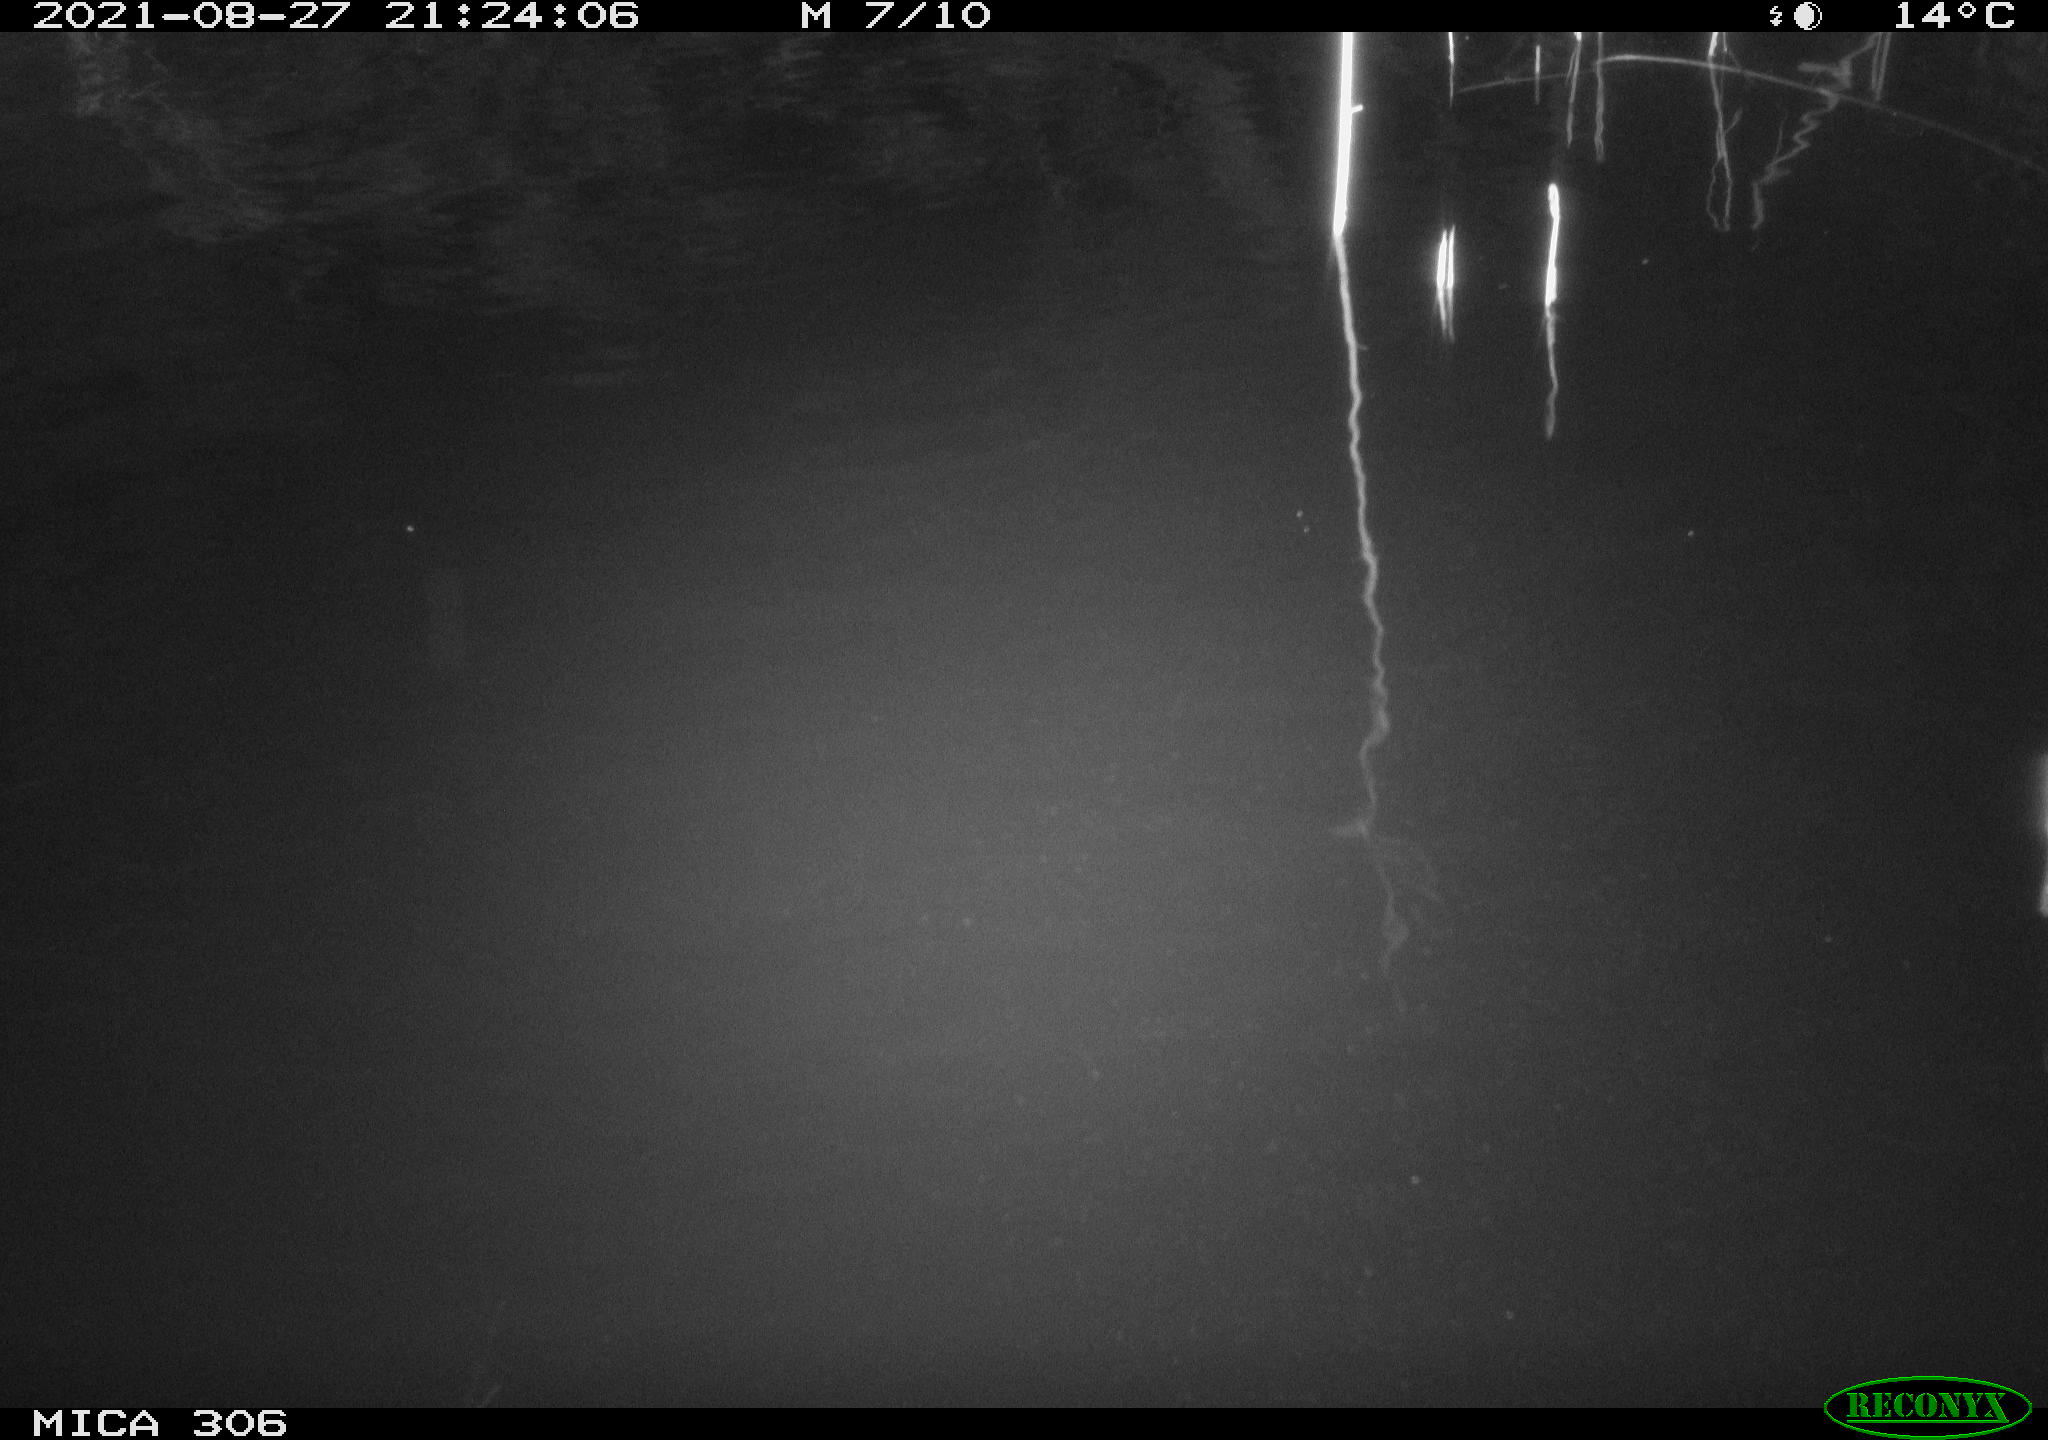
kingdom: Animalia
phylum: Chordata
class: Aves
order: Anseriformes
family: Anatidae
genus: Anas
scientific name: Anas platyrhynchos
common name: Mallard
